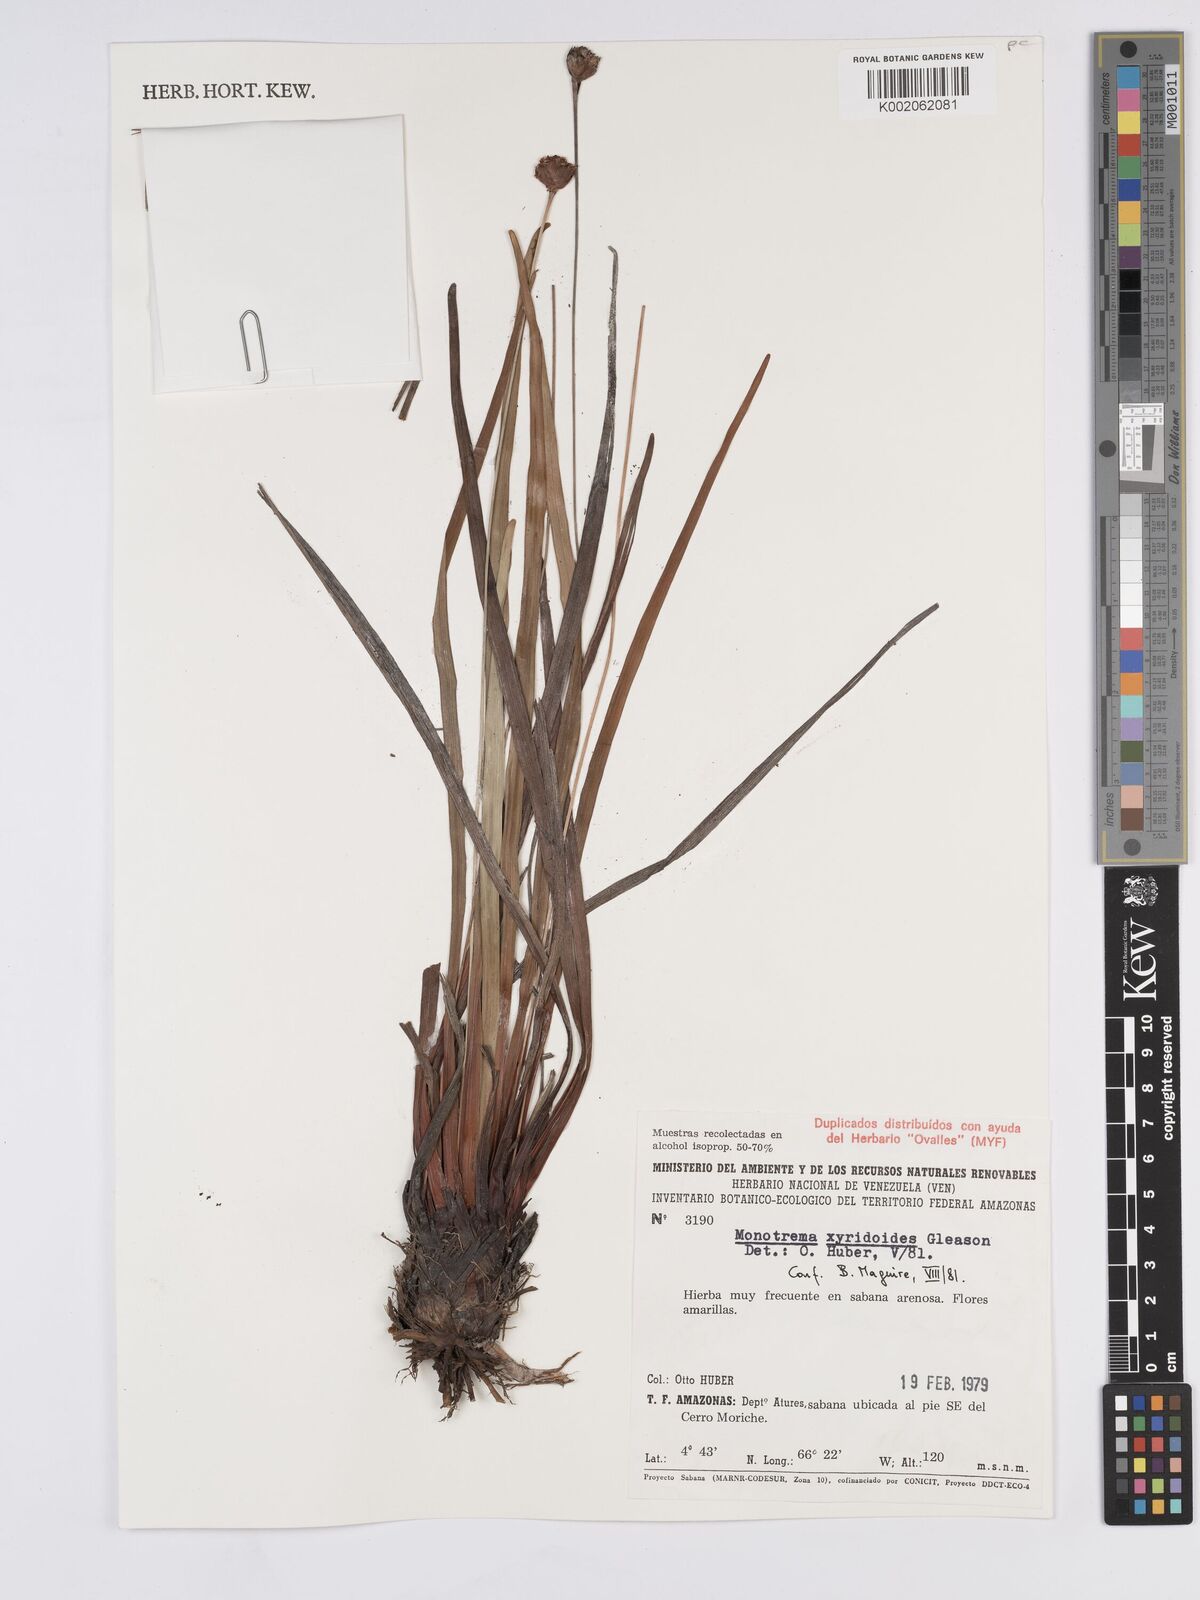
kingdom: Plantae
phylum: Tracheophyta
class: Liliopsida
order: Poales
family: Rapateaceae
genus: Monotrema
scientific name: Monotrema xyridoides
